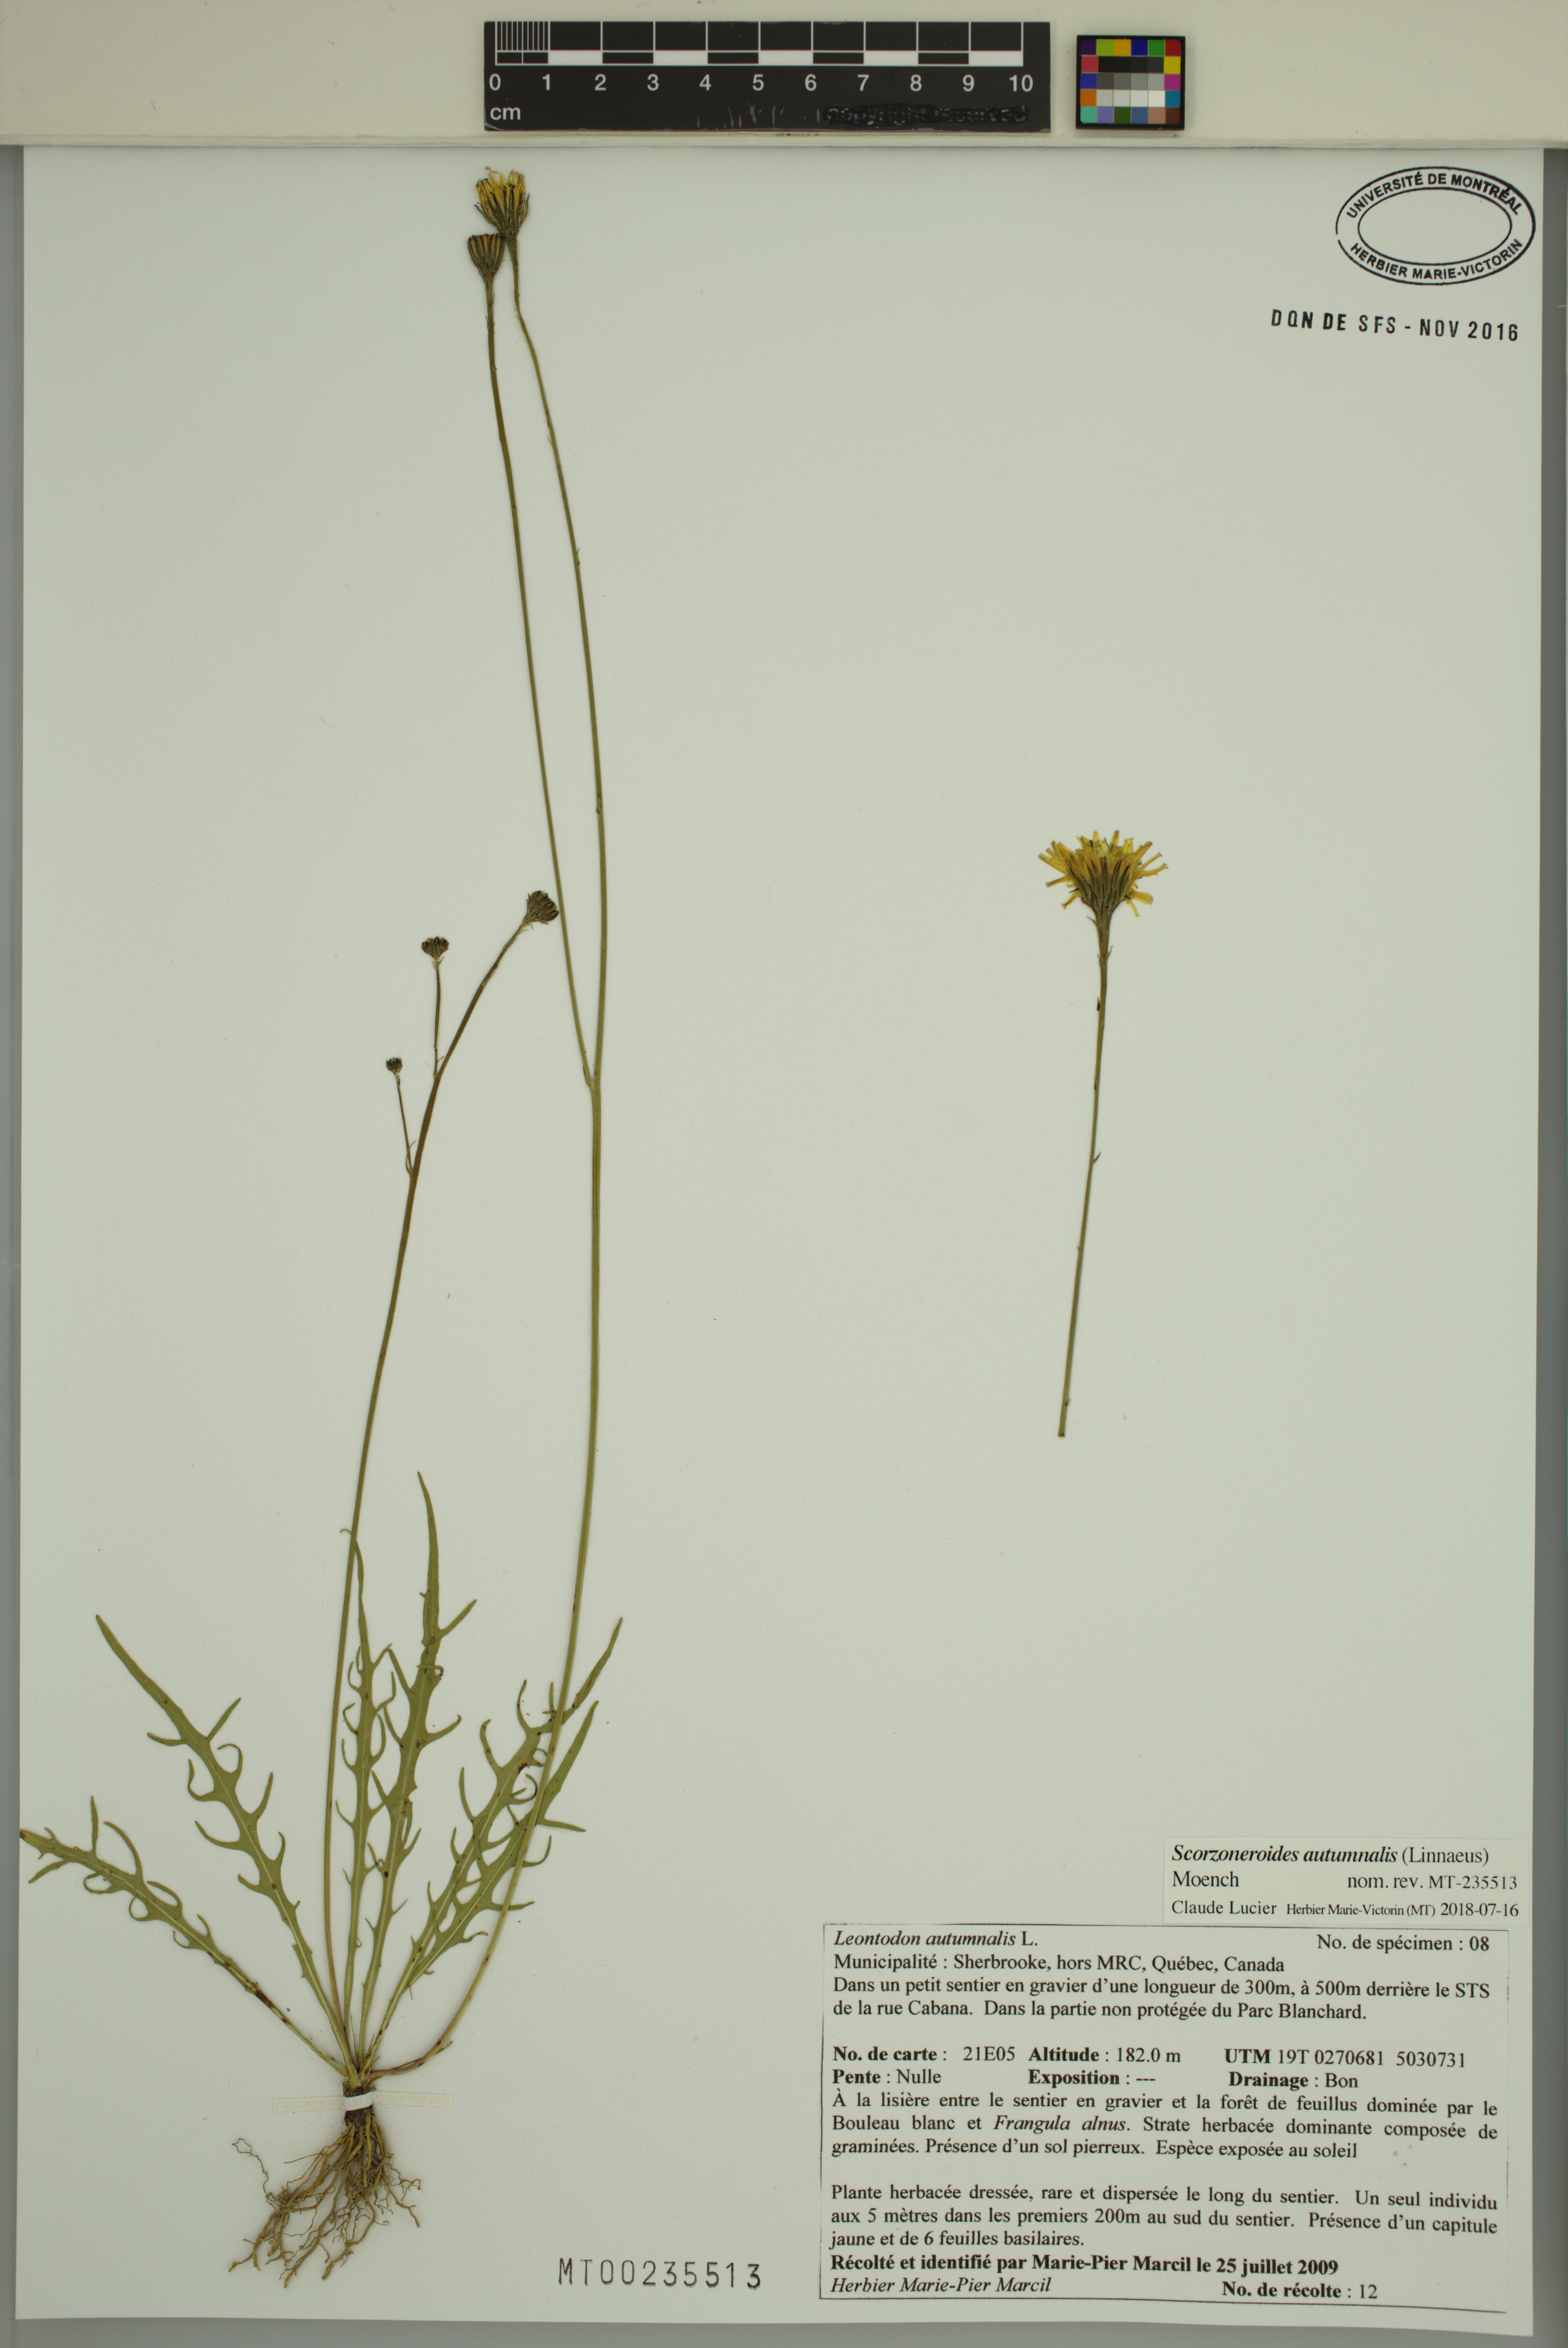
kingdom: Plantae
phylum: Tracheophyta
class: Magnoliopsida
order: Asterales
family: Asteraceae
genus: Scorzoneroides
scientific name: Scorzoneroides autumnalis
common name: Autumn hawkbit
